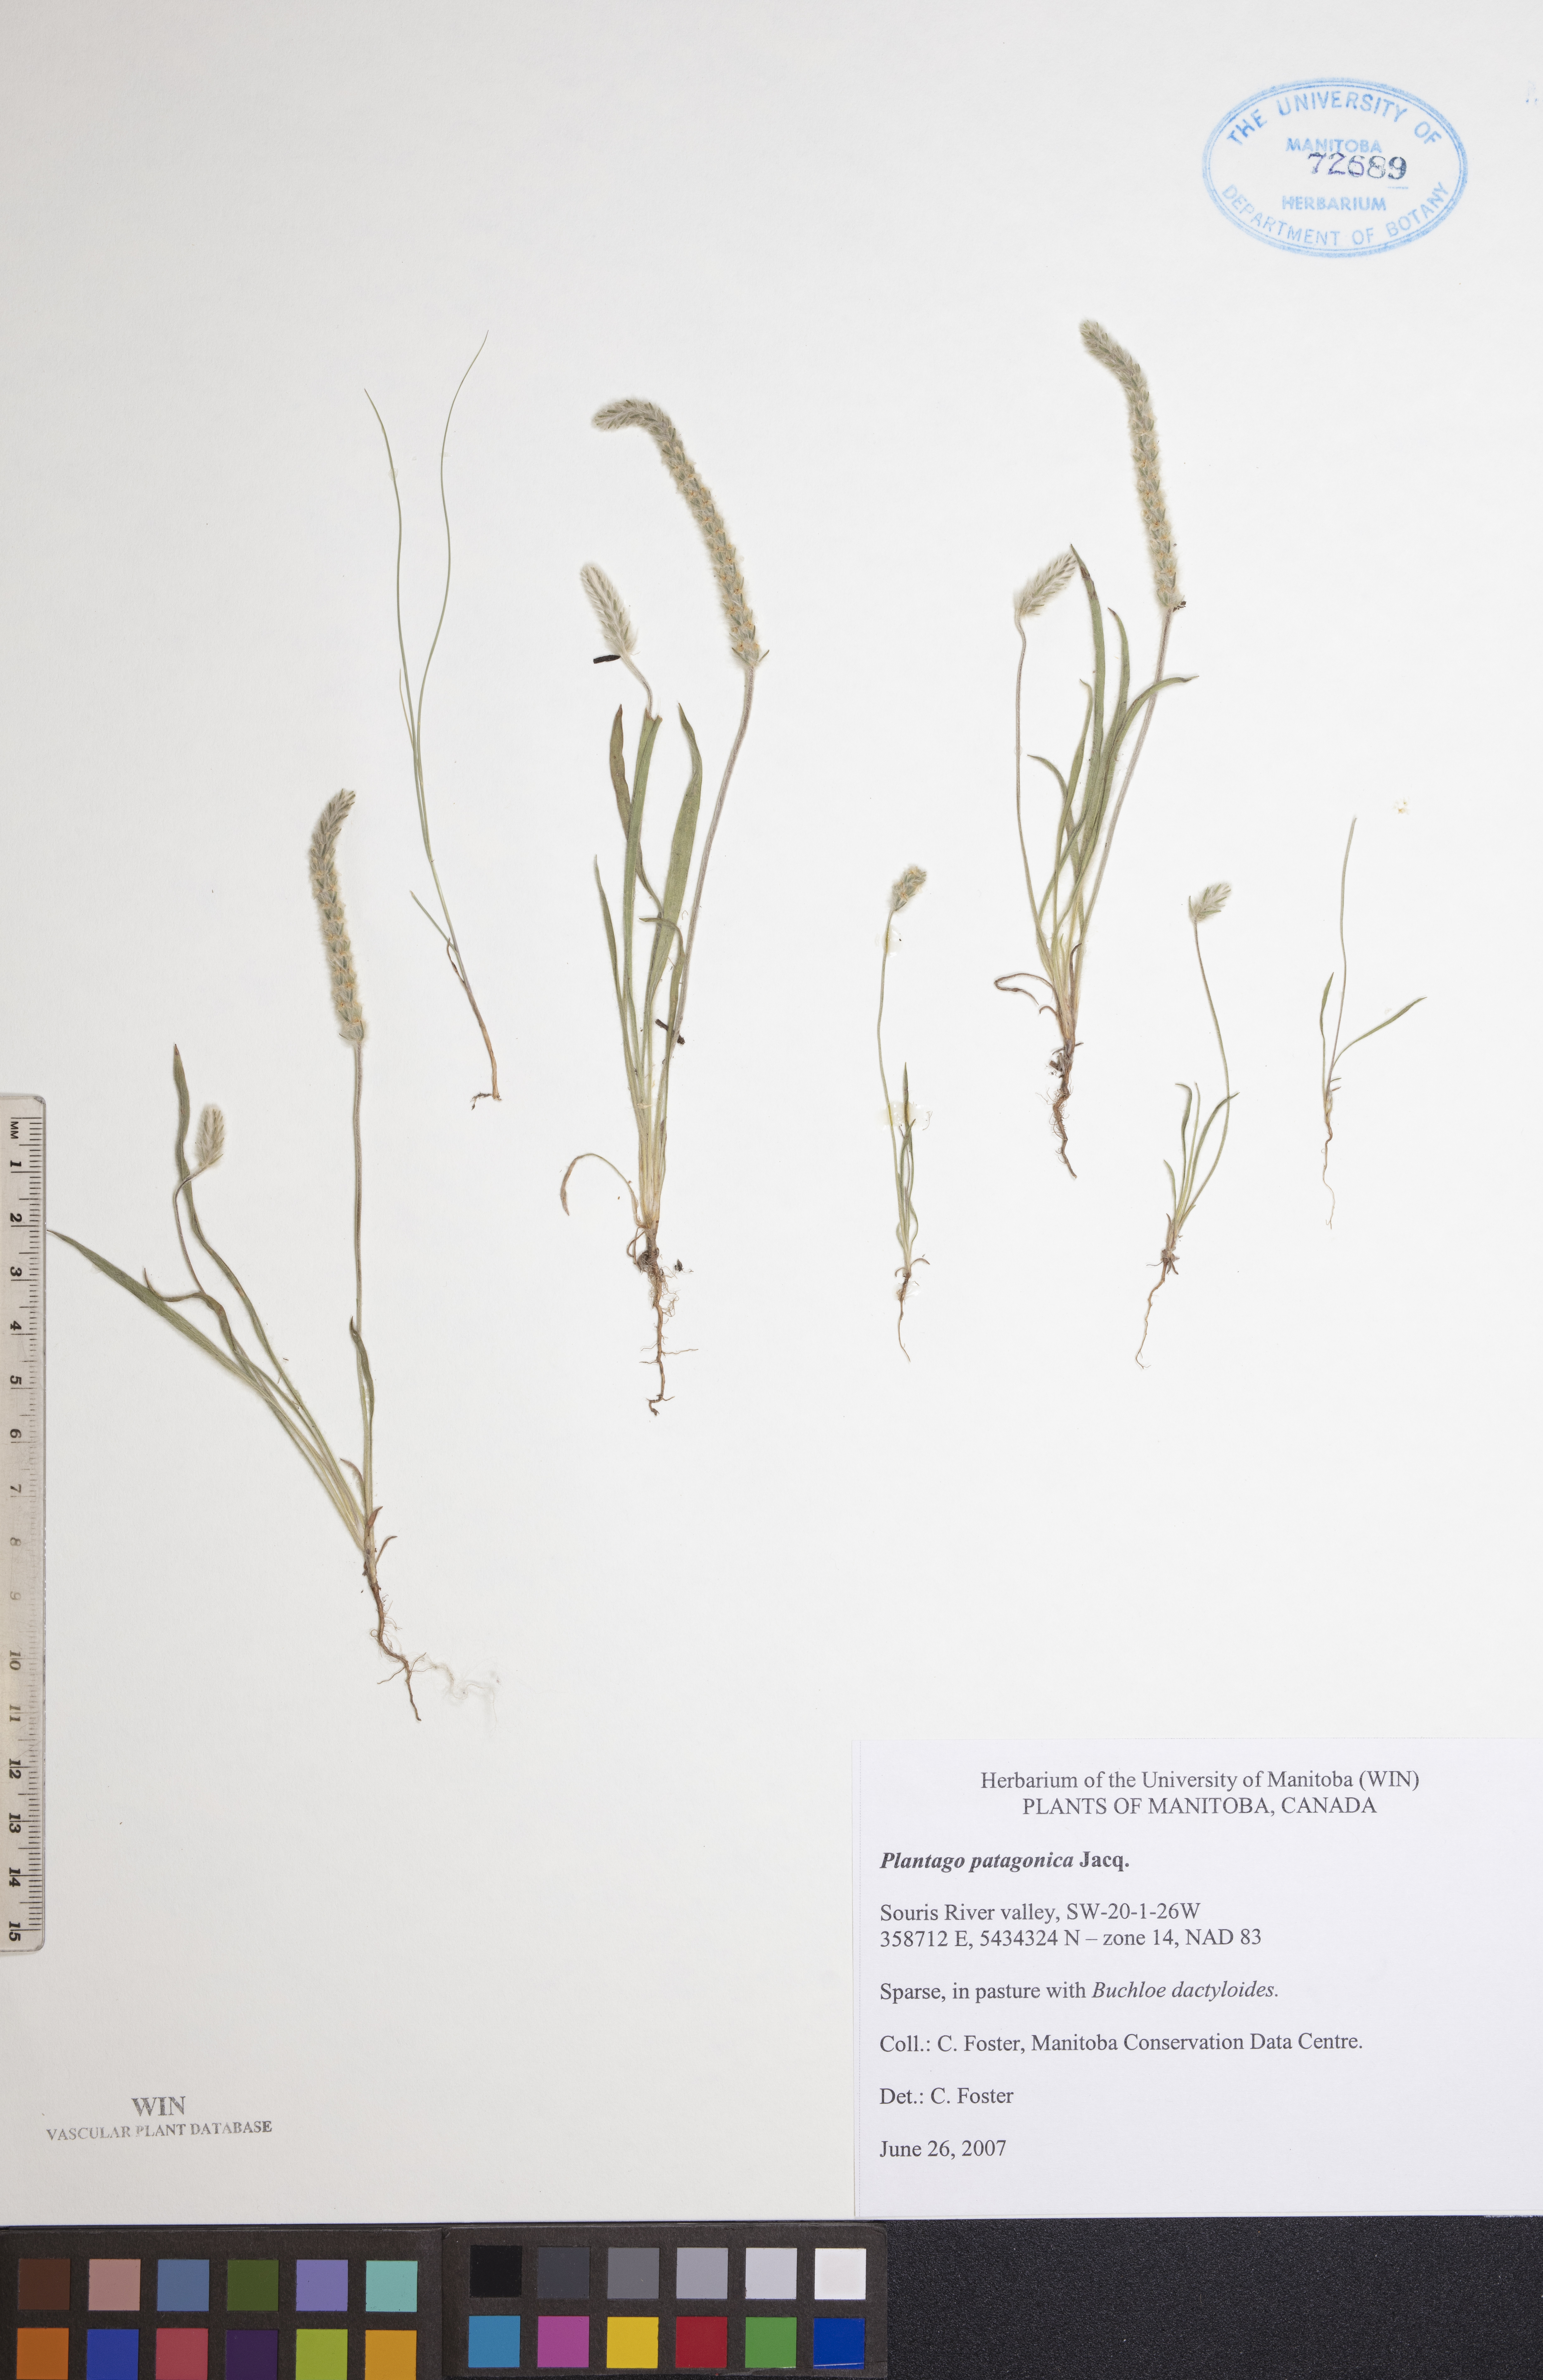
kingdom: Plantae
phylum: Tracheophyta
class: Magnoliopsida
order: Lamiales
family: Plantaginaceae
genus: Plantago
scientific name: Plantago patagonica
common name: Patagonia indian-wheat
